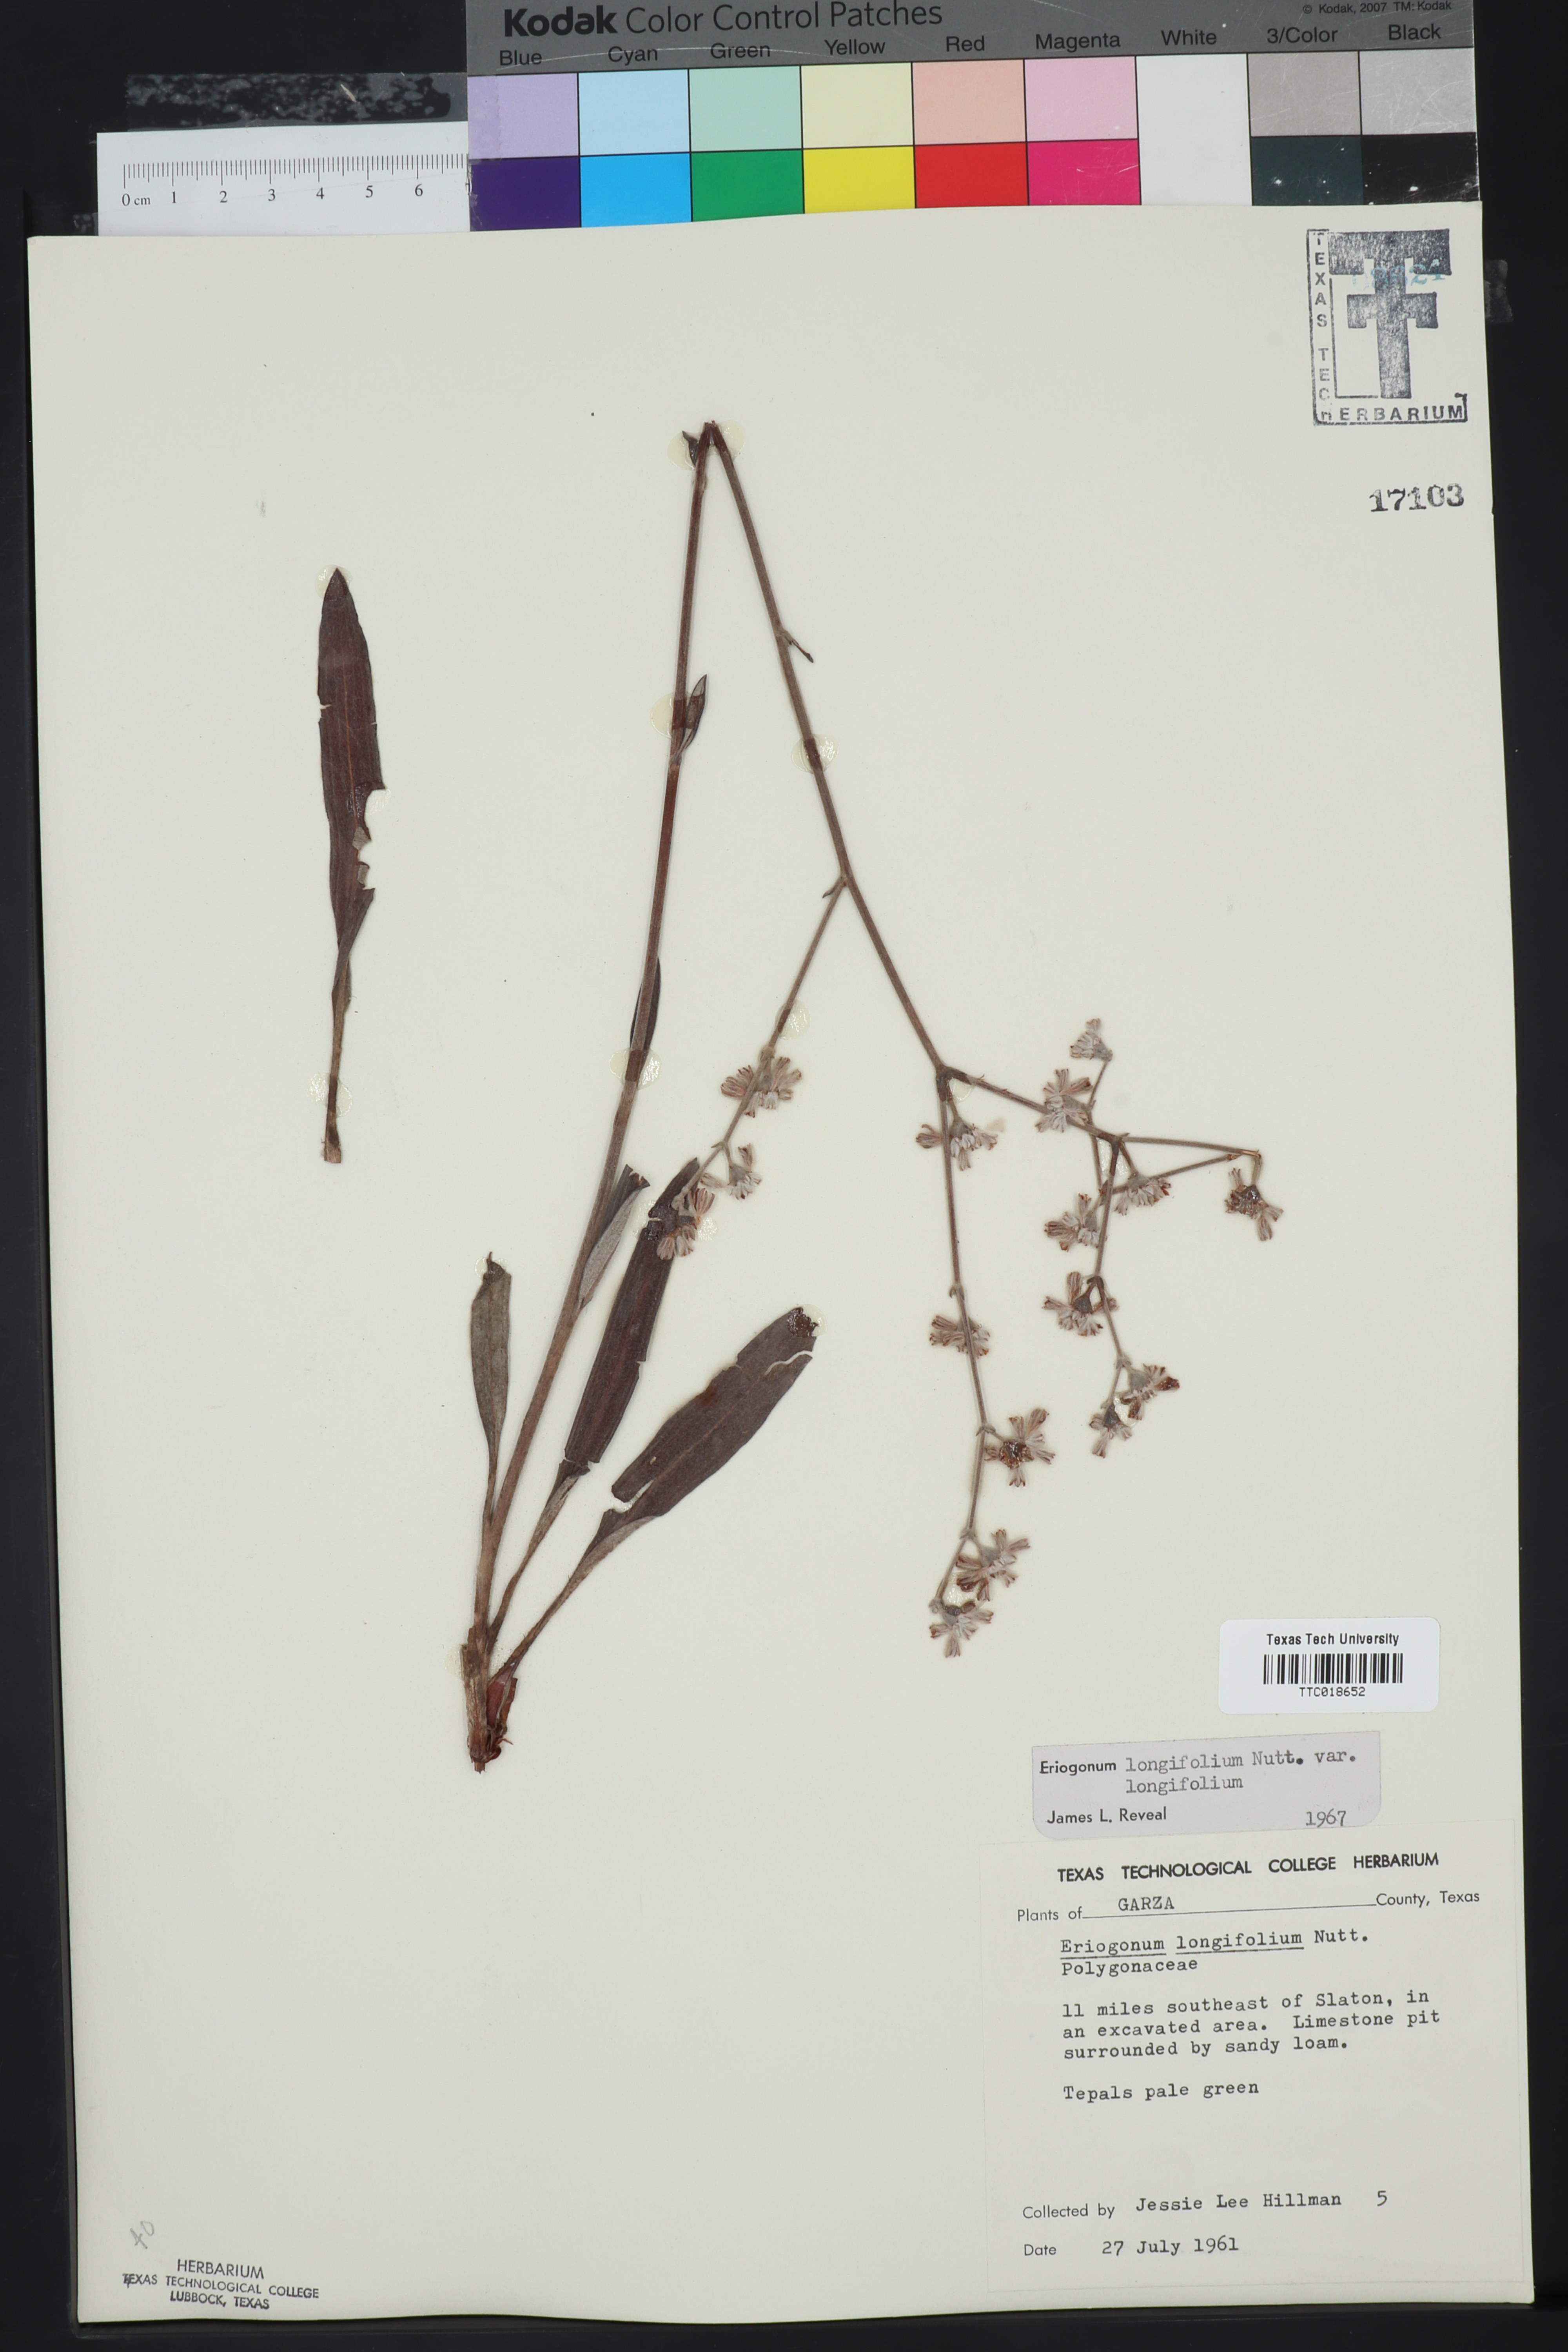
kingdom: Plantae
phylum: Tracheophyta
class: Magnoliopsida
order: Caryophyllales
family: Polygonaceae
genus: Eriogonum
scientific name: Eriogonum longifolium
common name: Longleaf wild buckwheat
